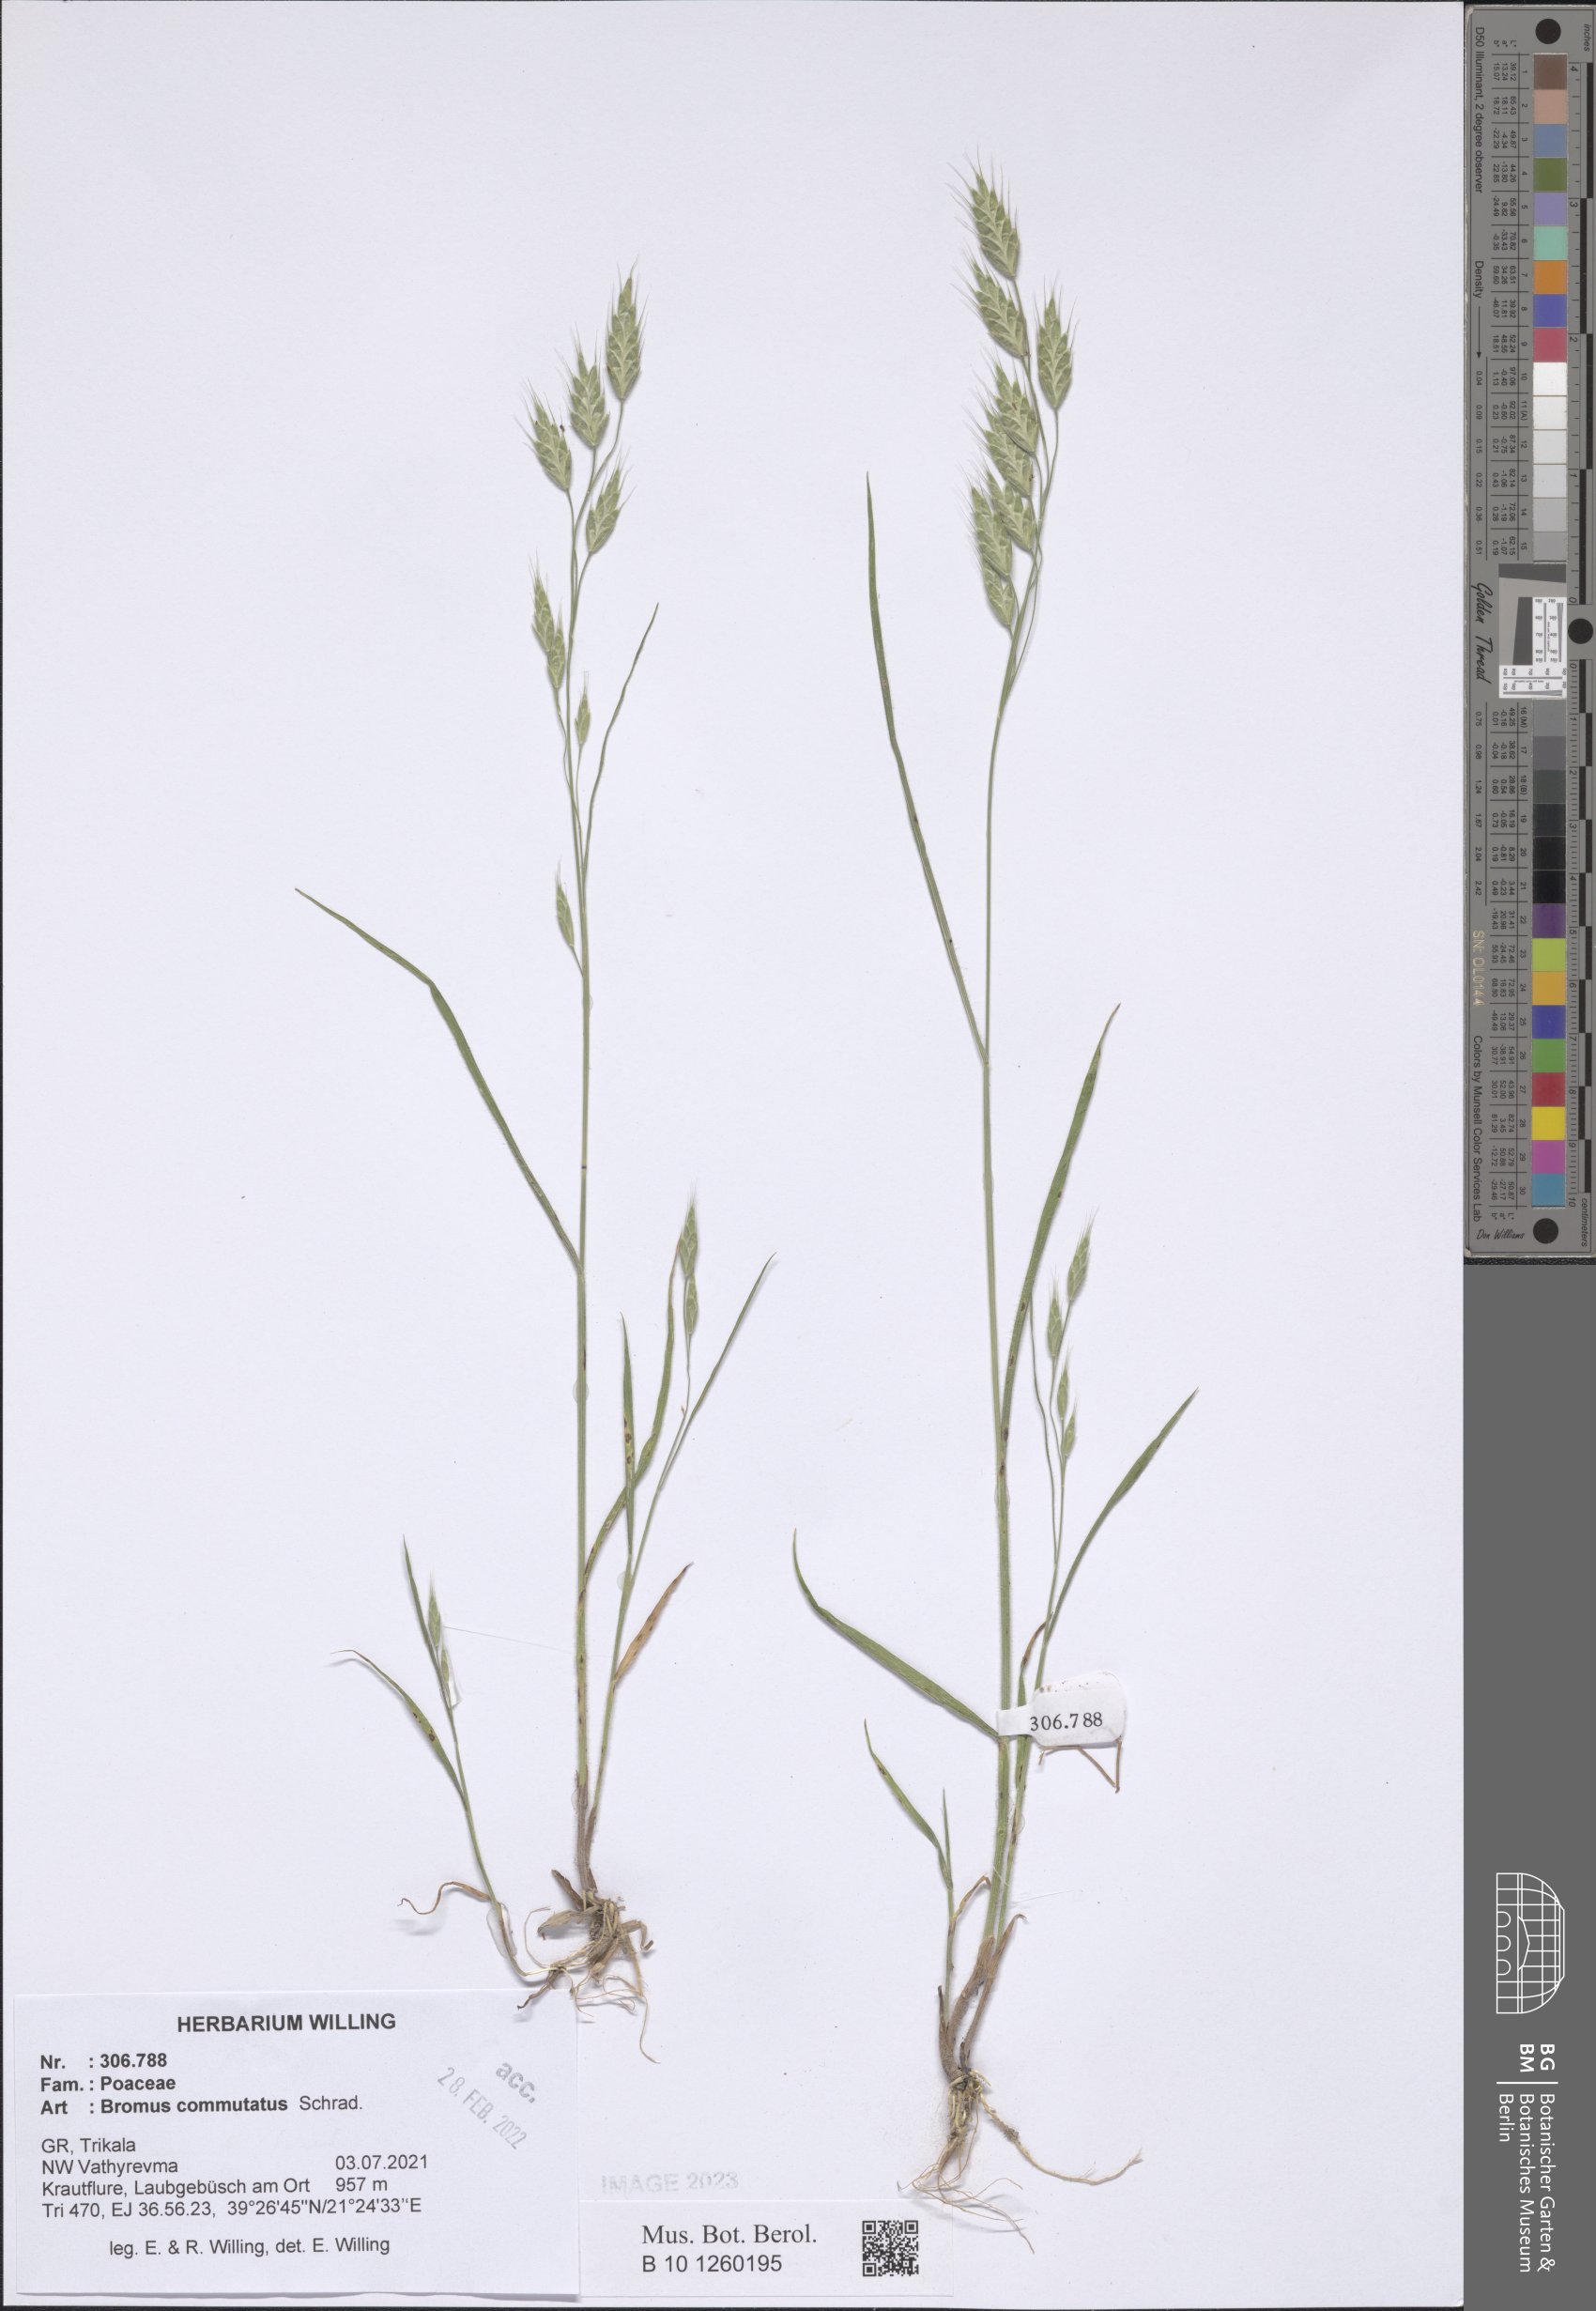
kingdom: Plantae
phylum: Tracheophyta
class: Liliopsida
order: Poales
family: Poaceae
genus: Bromus
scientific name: Bromus commutatus
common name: Meadow brome
